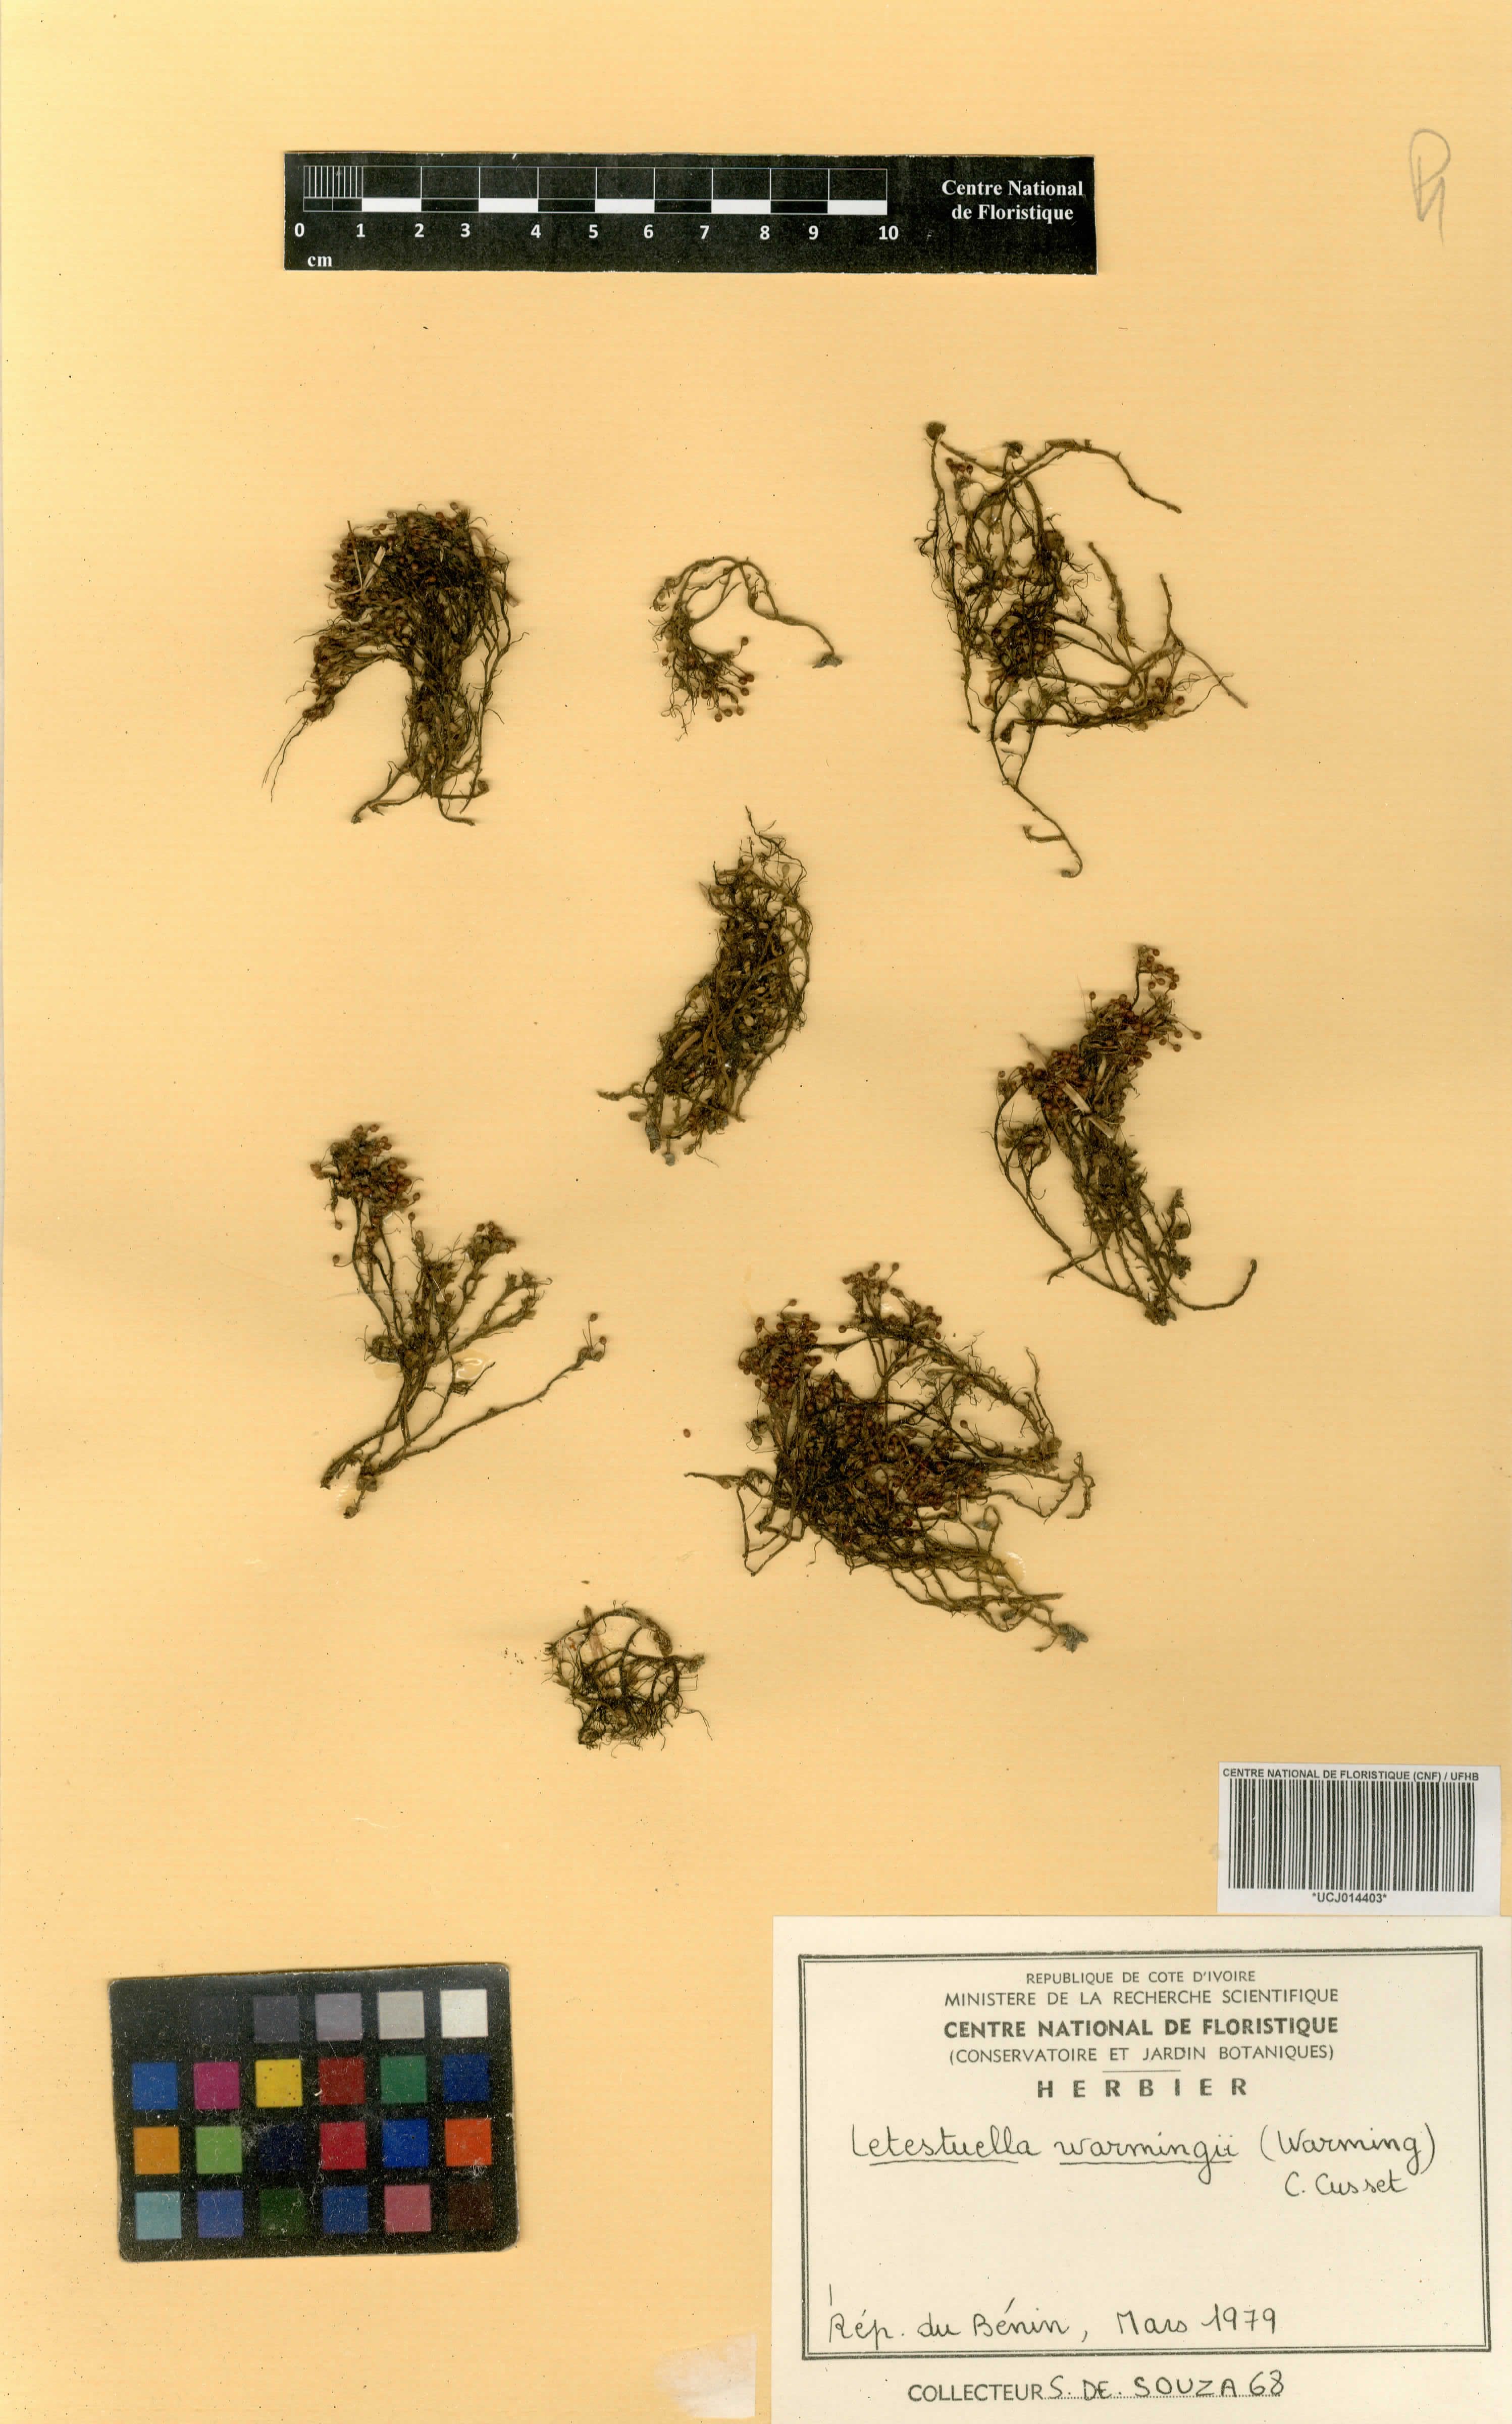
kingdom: Plantae
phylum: Tracheophyta
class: Magnoliopsida
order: Malpighiales
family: Podostemaceae
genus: Letestuella
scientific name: Letestuella tisserantii
